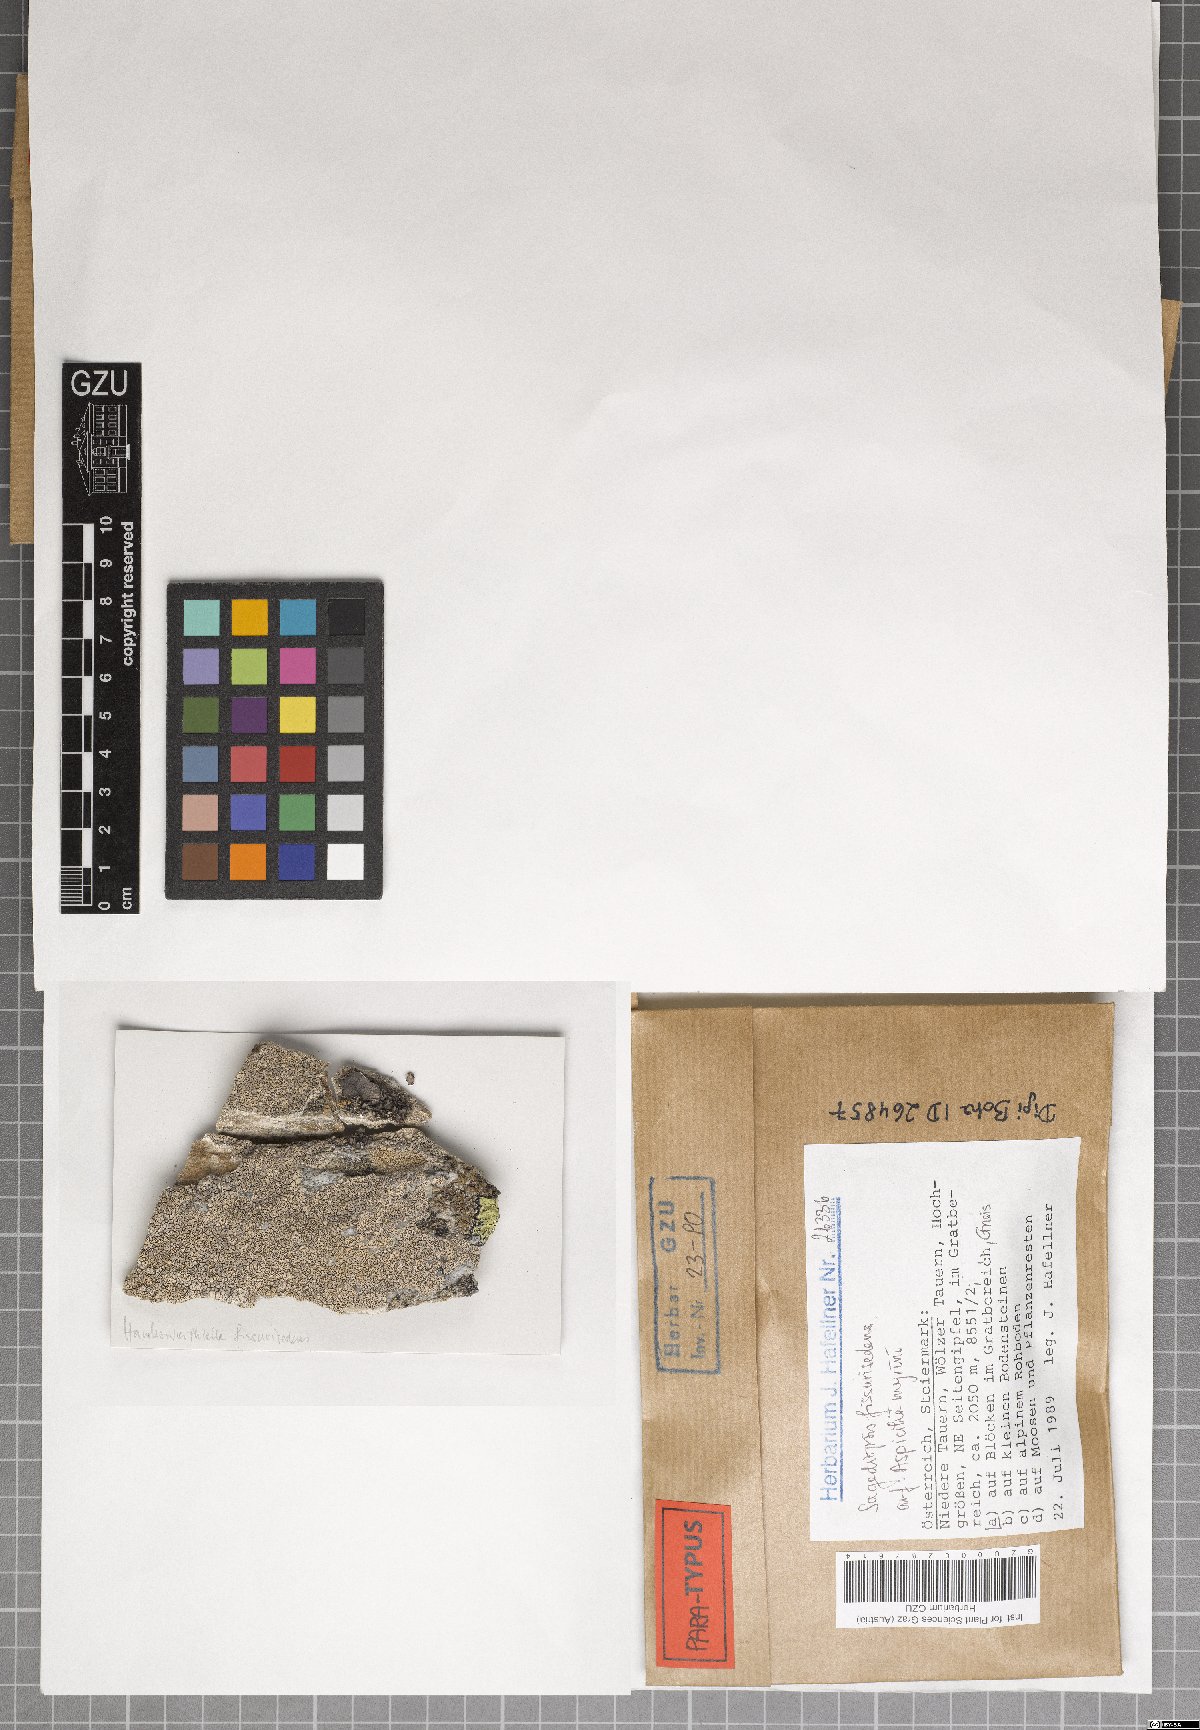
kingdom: Fungi
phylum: Ascomycota
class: Eurotiomycetes
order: Verrucariales
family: Adelococcaceae
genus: Sagediopsis
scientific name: Sagediopsis fissurisedens
